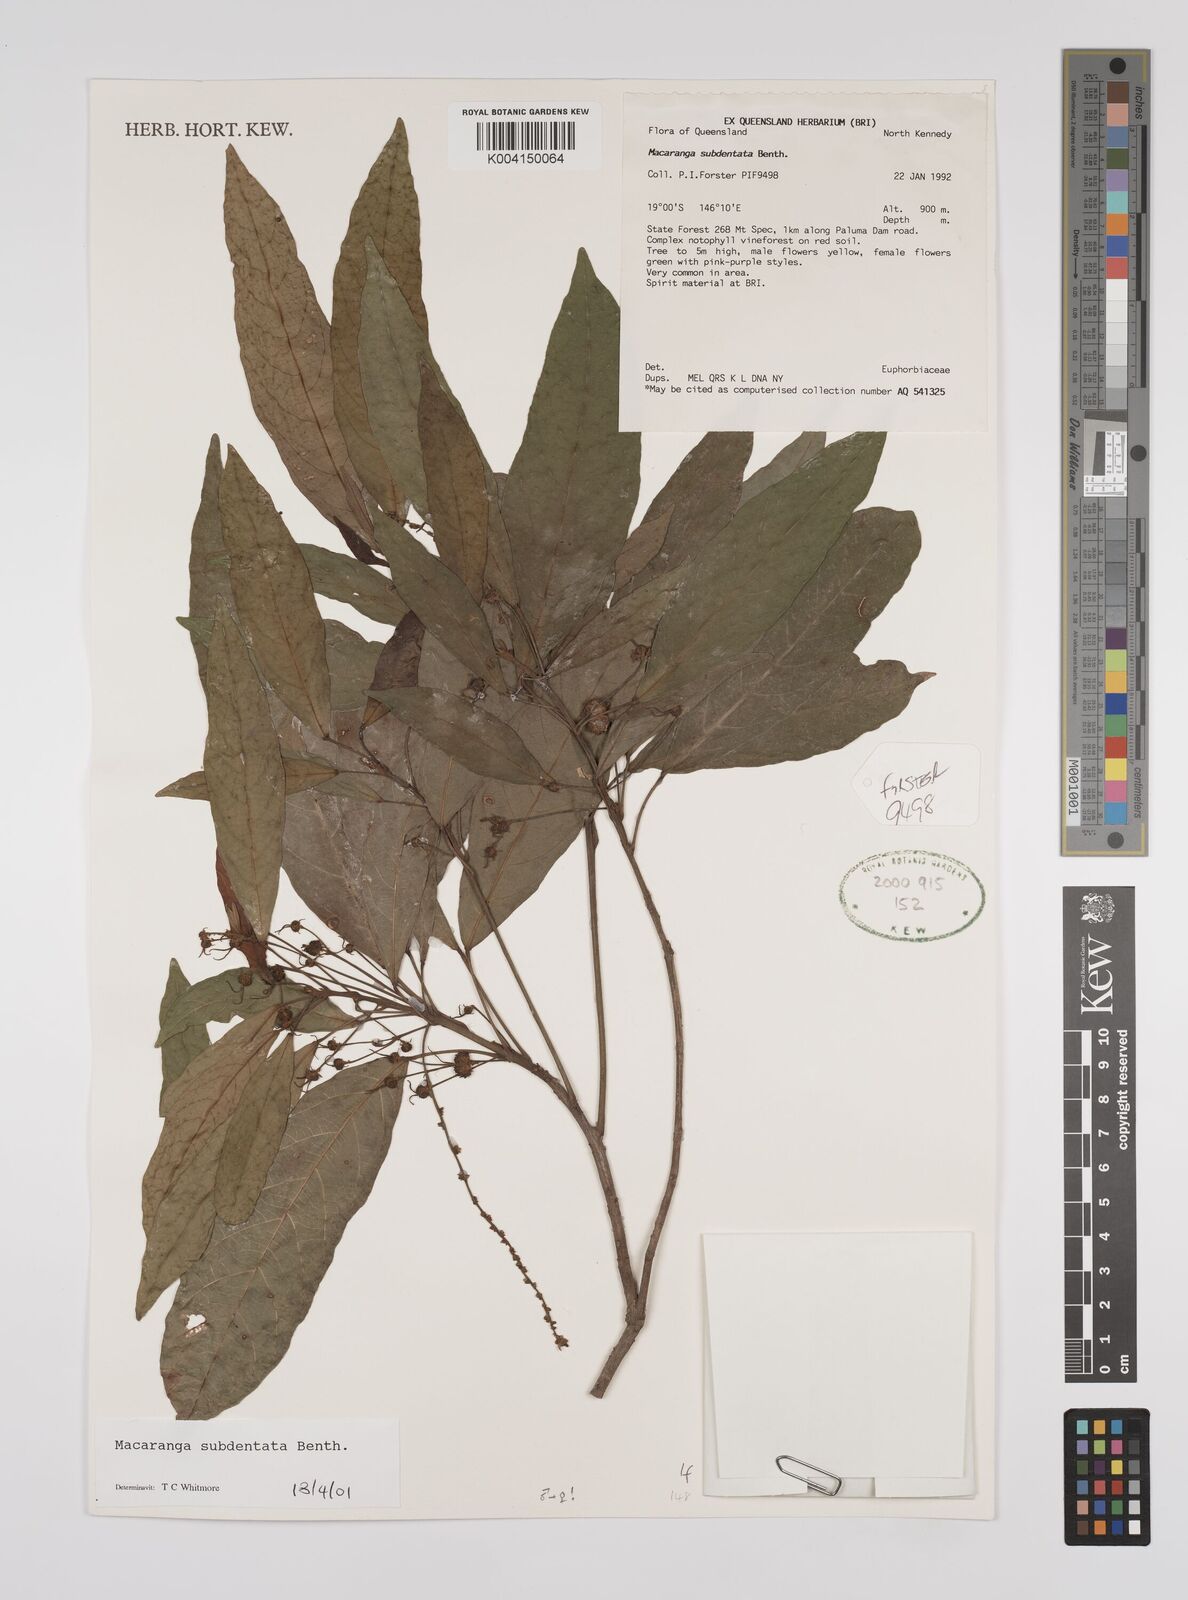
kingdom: Plantae
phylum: Tracheophyta
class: Magnoliopsida
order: Malpighiales
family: Euphorbiaceae
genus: Macaranga
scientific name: Macaranga subdentata
